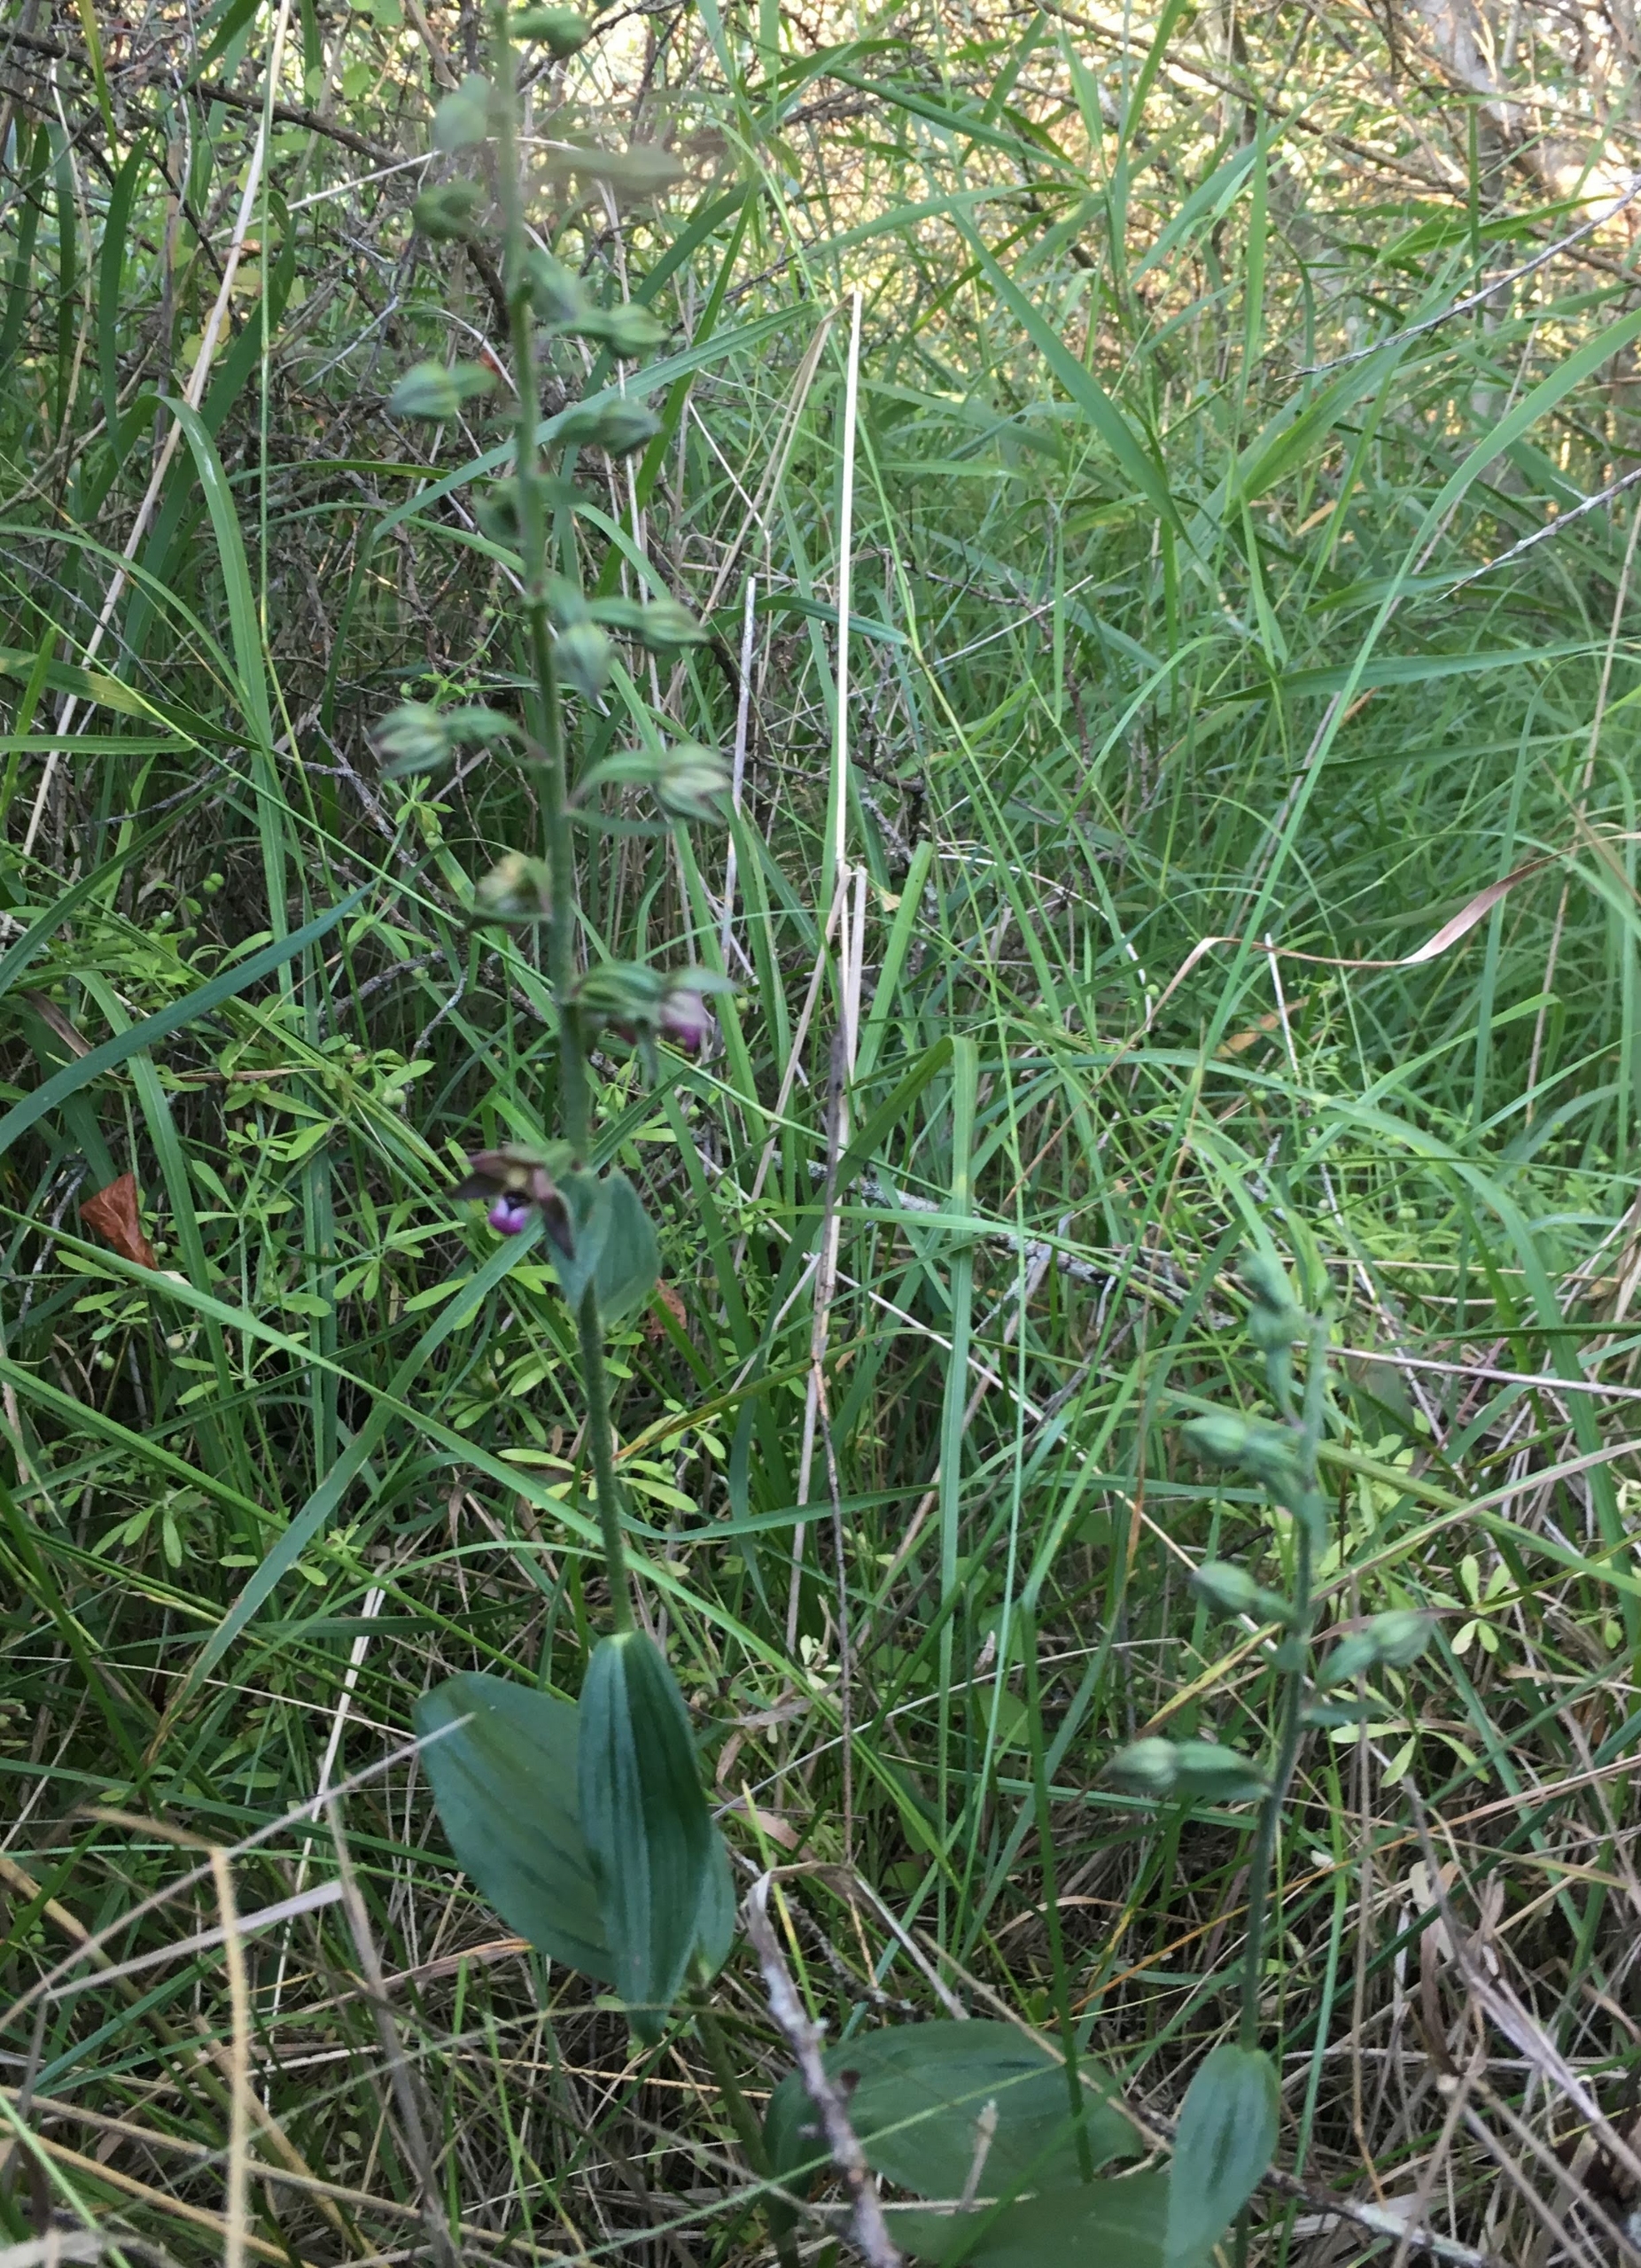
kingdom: Plantae
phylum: Tracheophyta
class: Liliopsida
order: Asparagales
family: Orchidaceae
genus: Epipactis
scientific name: Epipactis helleborine
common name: Hollandsk hullæbe
